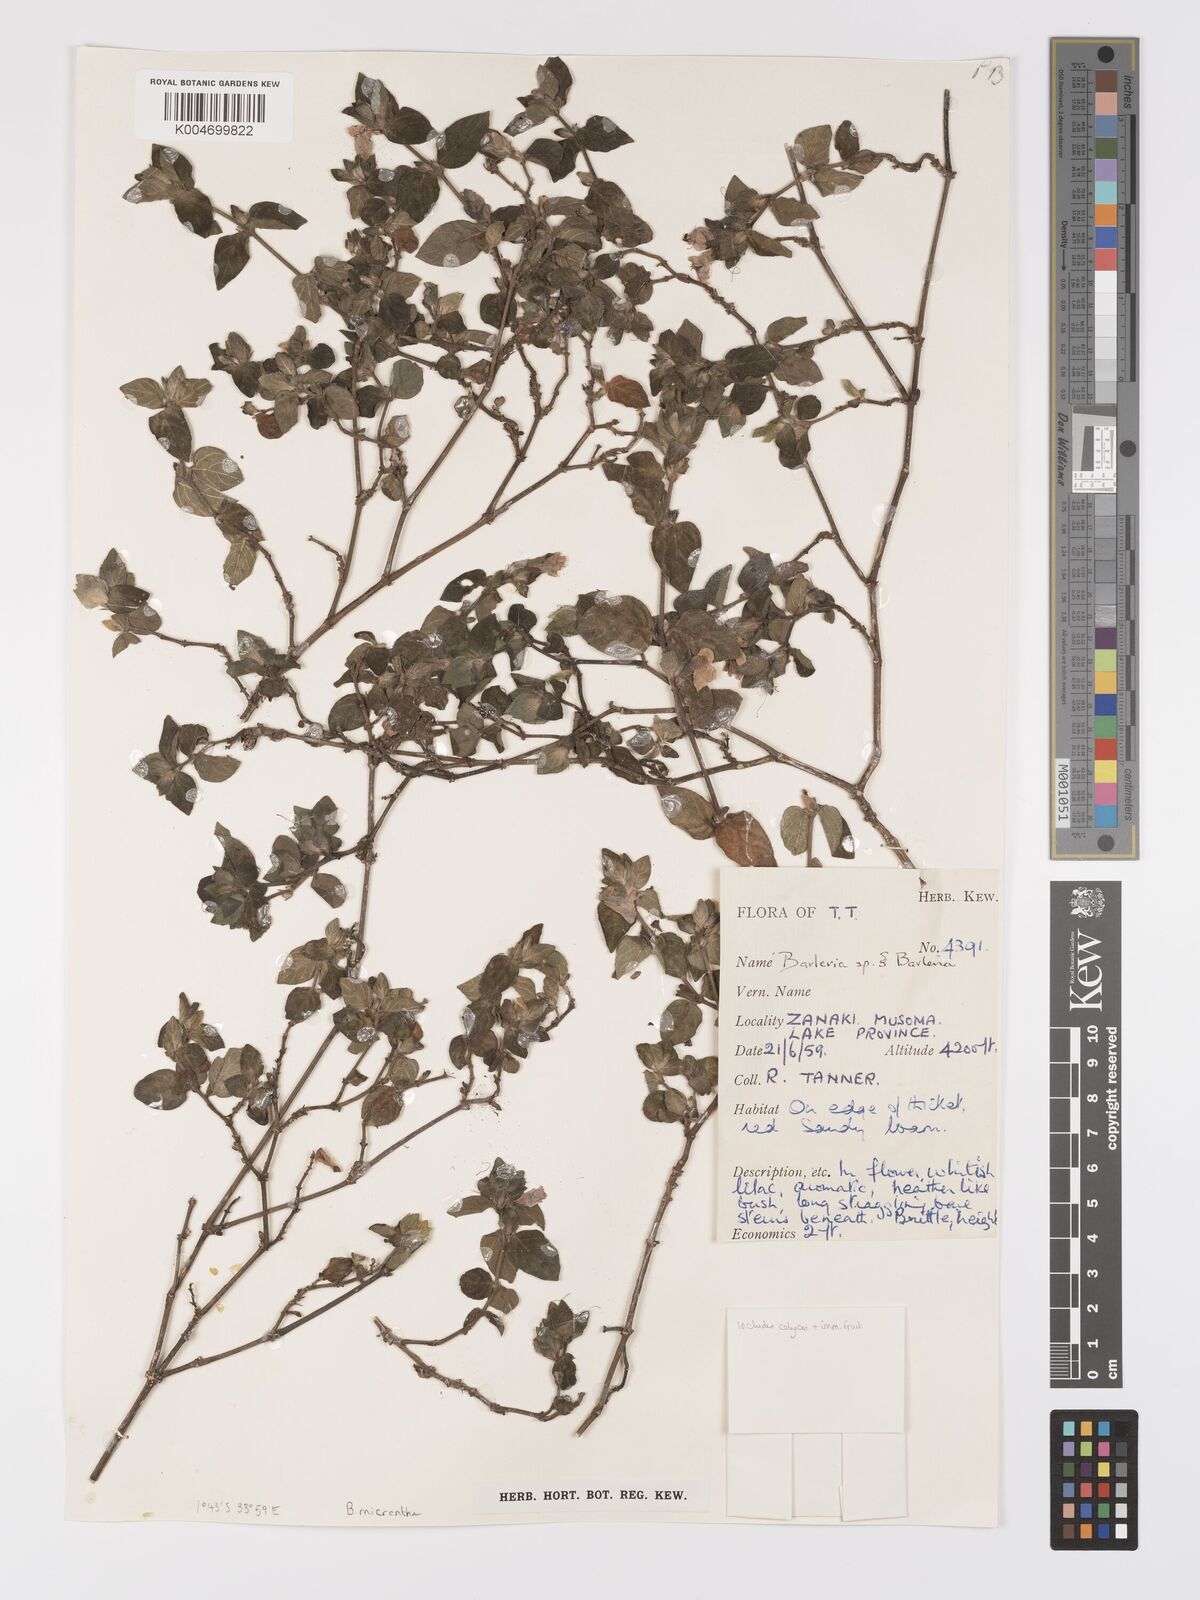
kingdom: Plantae
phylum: Tracheophyta
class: Magnoliopsida
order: Lamiales
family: Acanthaceae
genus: Barleria
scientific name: Barleria ventricosa
